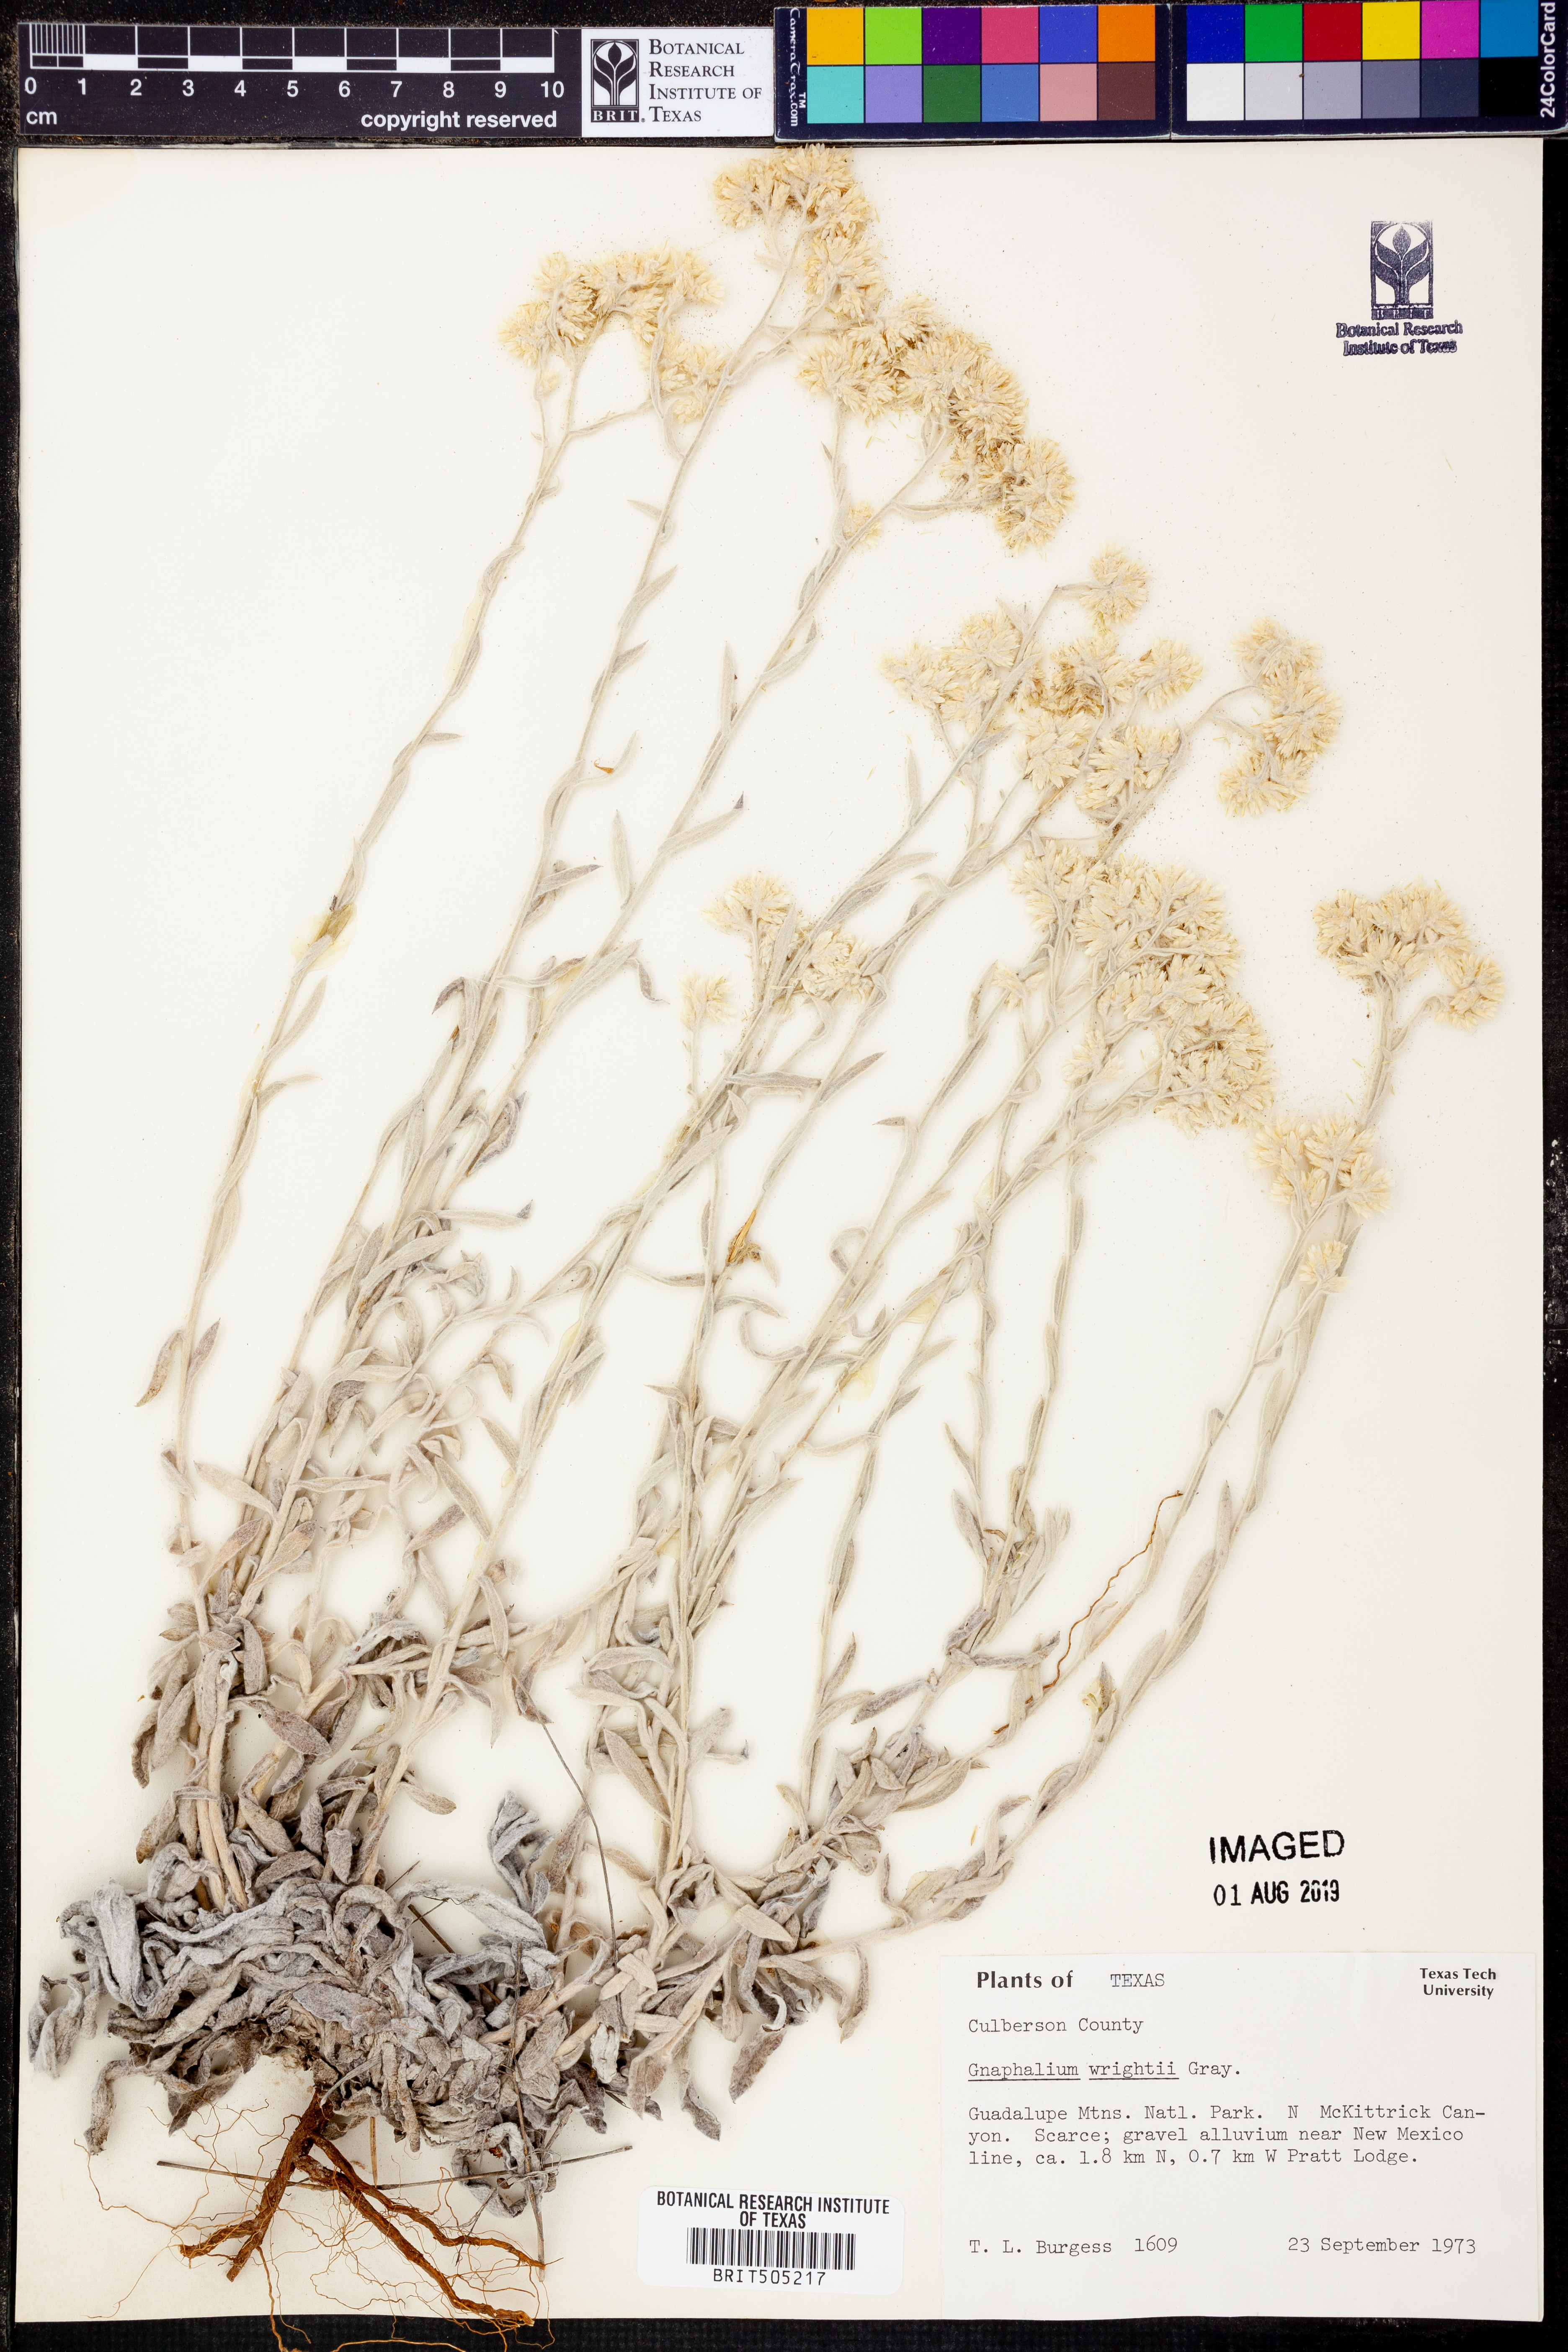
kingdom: Plantae
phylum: Tracheophyta
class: Magnoliopsida
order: Asterales
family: Asteraceae
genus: Pseudognaphalium
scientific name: Pseudognaphalium canescens
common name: Wright's rabbit-tobacco
